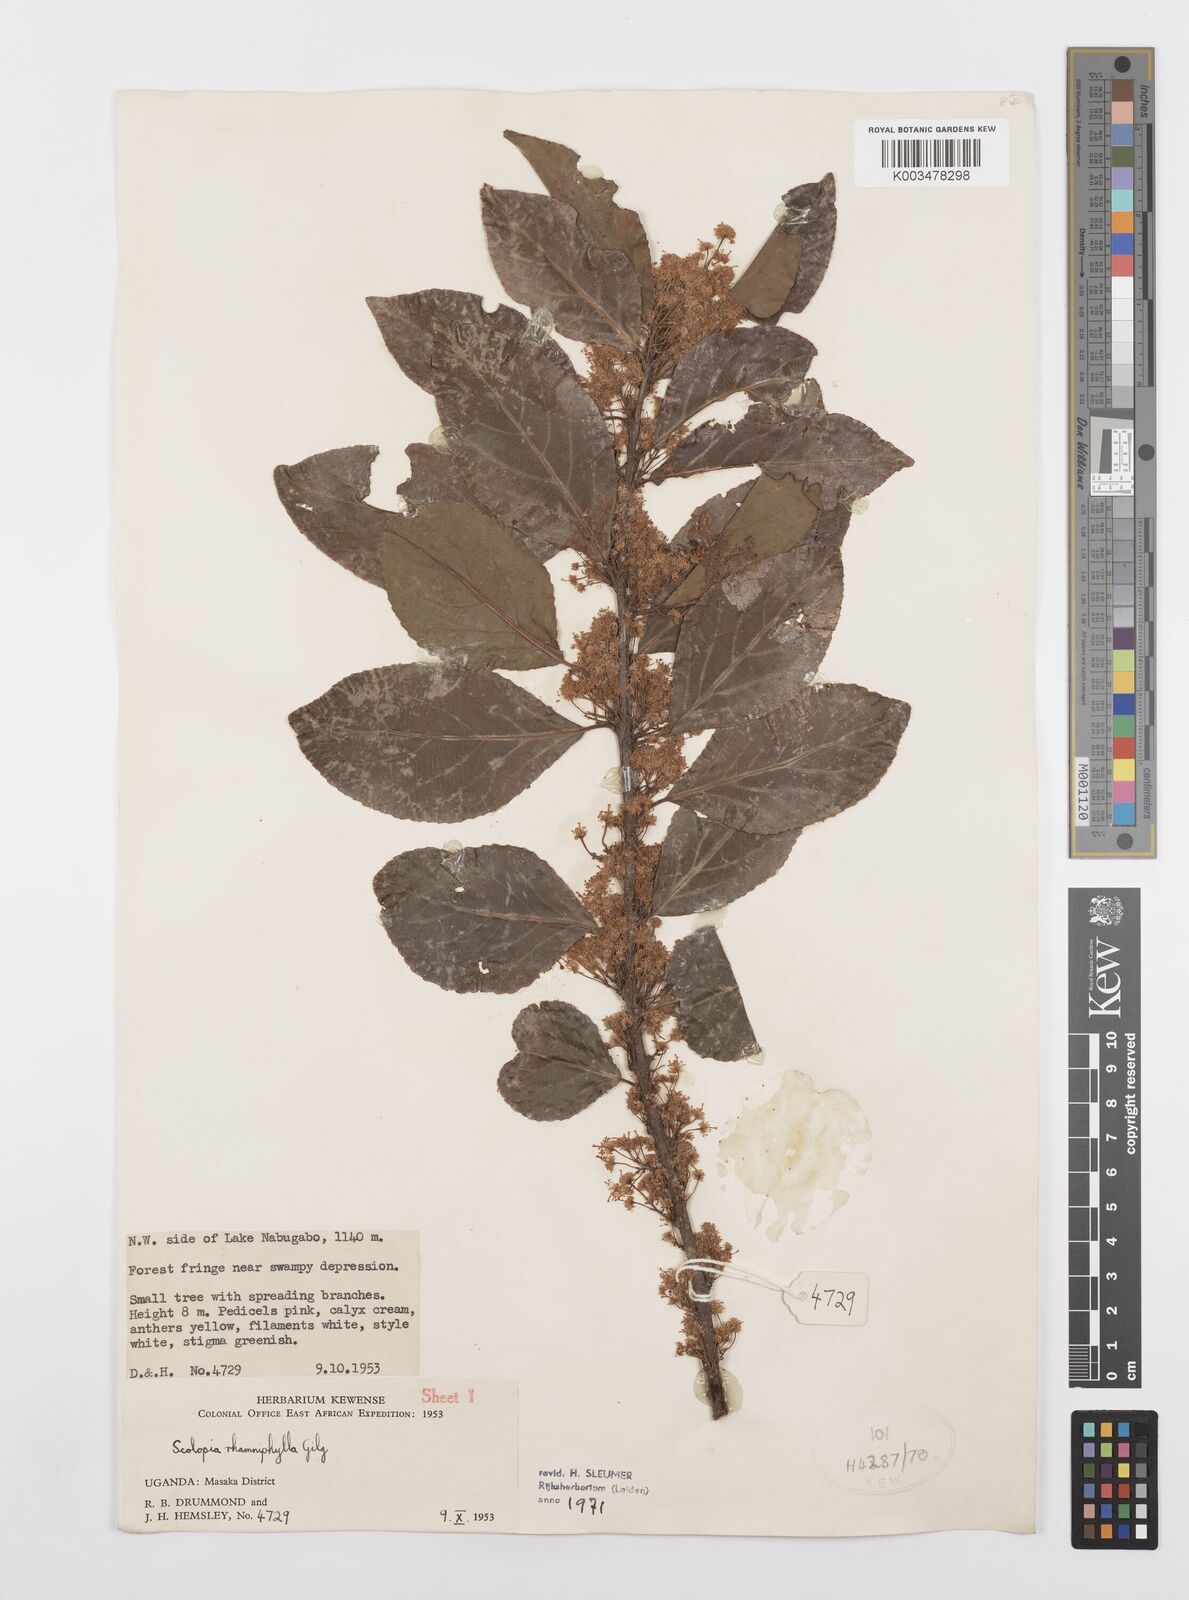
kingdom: Plantae
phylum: Tracheophyta
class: Magnoliopsida
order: Malpighiales
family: Salicaceae
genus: Scolopia
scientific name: Scolopia rhamniphylla
